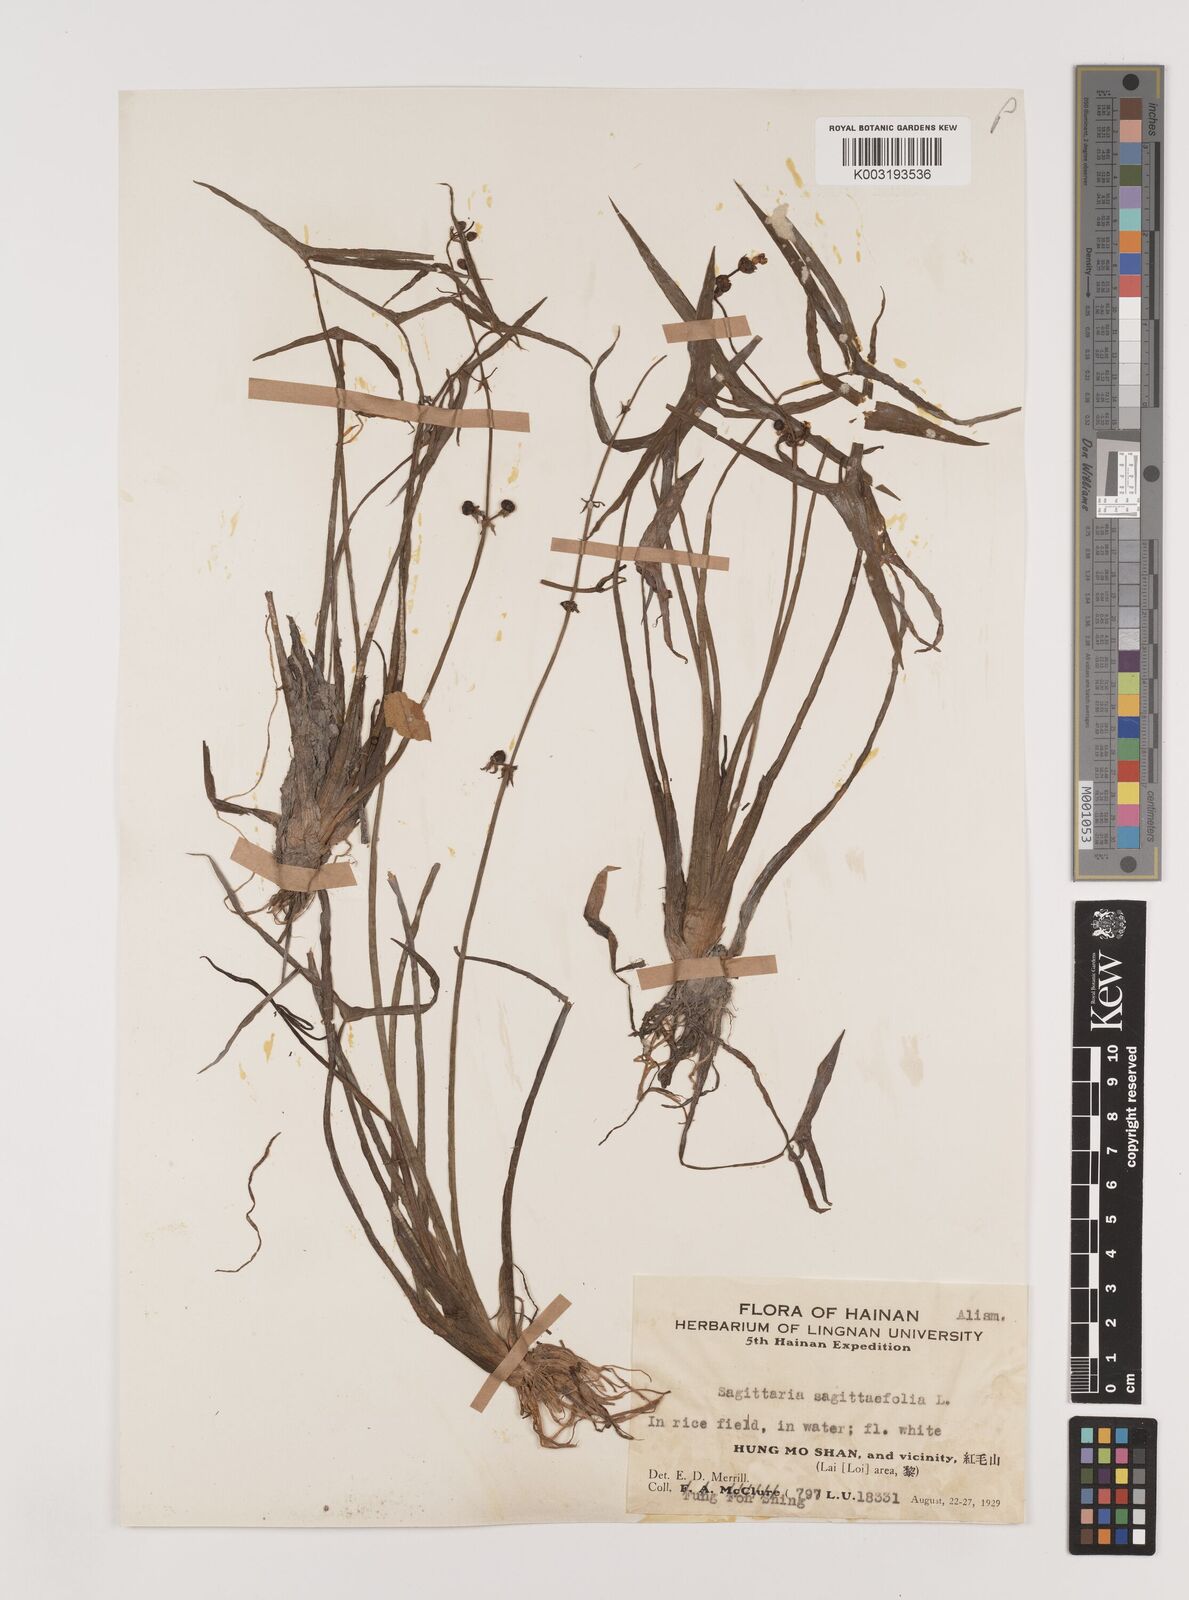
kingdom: Plantae
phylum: Tracheophyta
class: Liliopsida
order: Alismatales
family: Alismataceae
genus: Sagittaria
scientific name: Sagittaria sagittifolia
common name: Arrowhead
